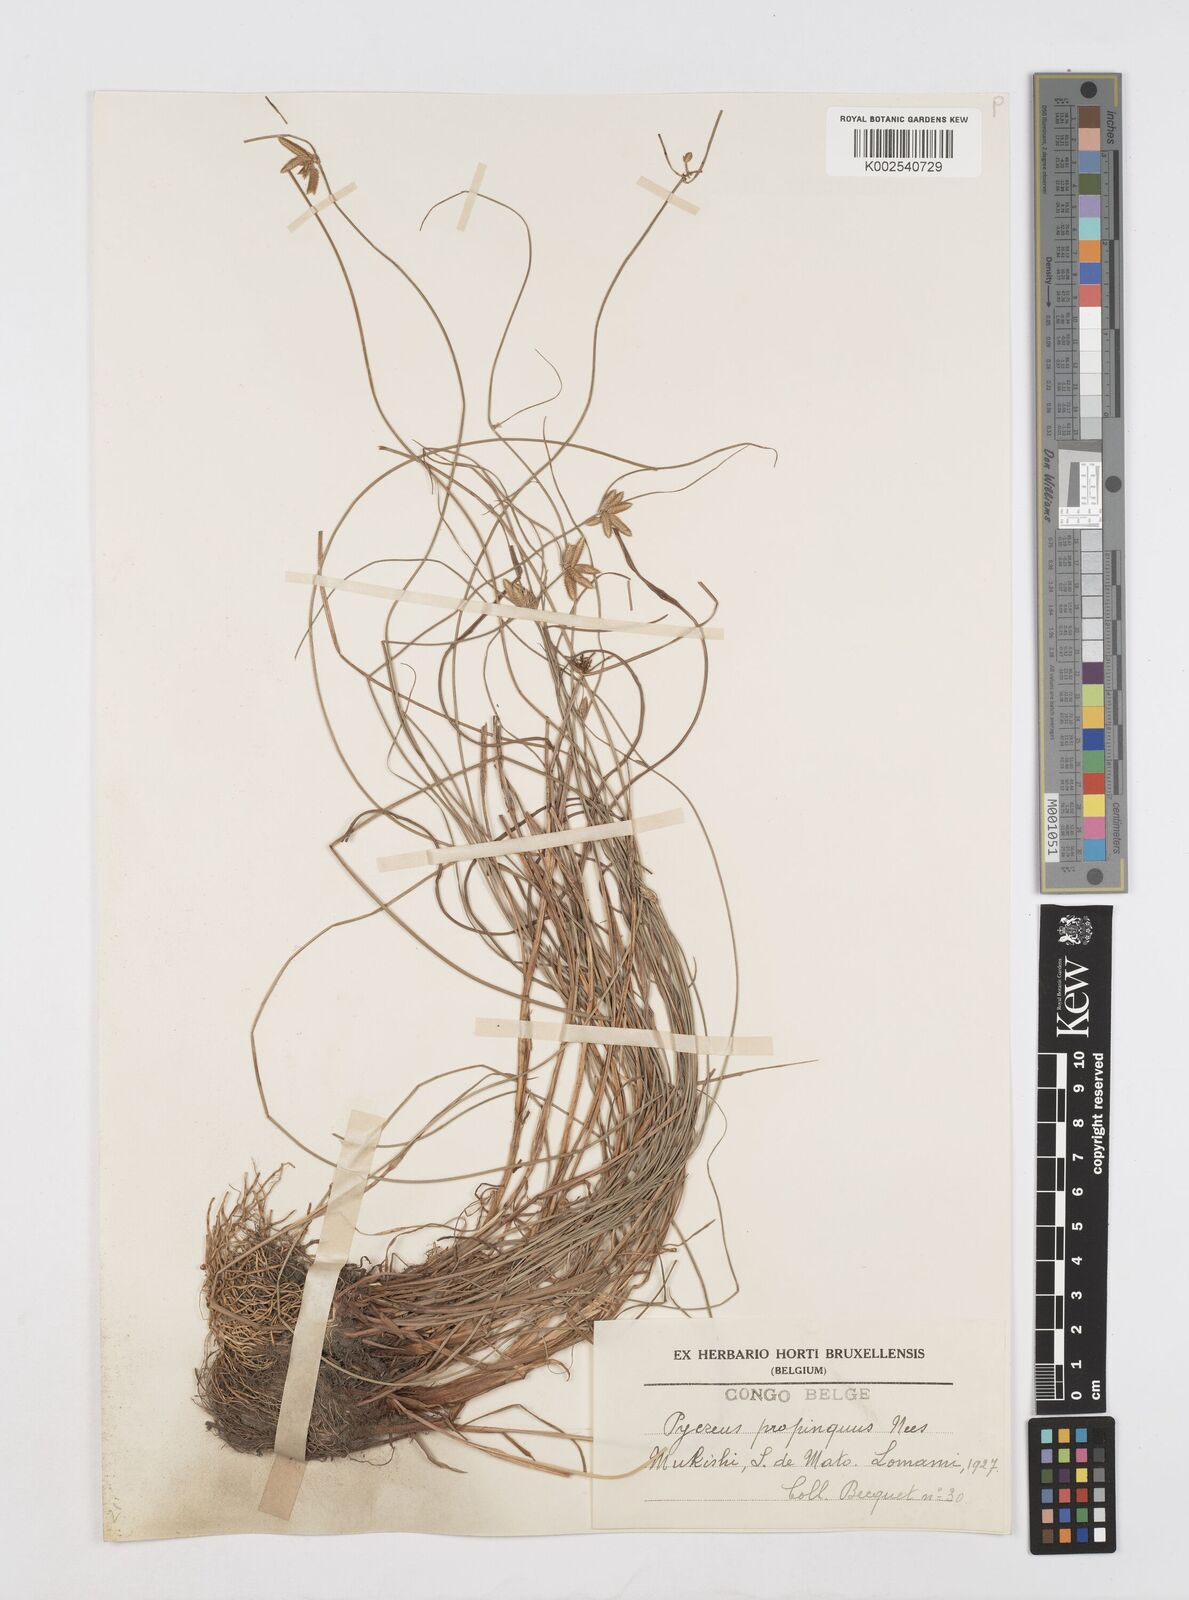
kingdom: Plantae
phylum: Tracheophyta
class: Liliopsida
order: Poales
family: Cyperaceae
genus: Cyperus
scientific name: Cyperus
